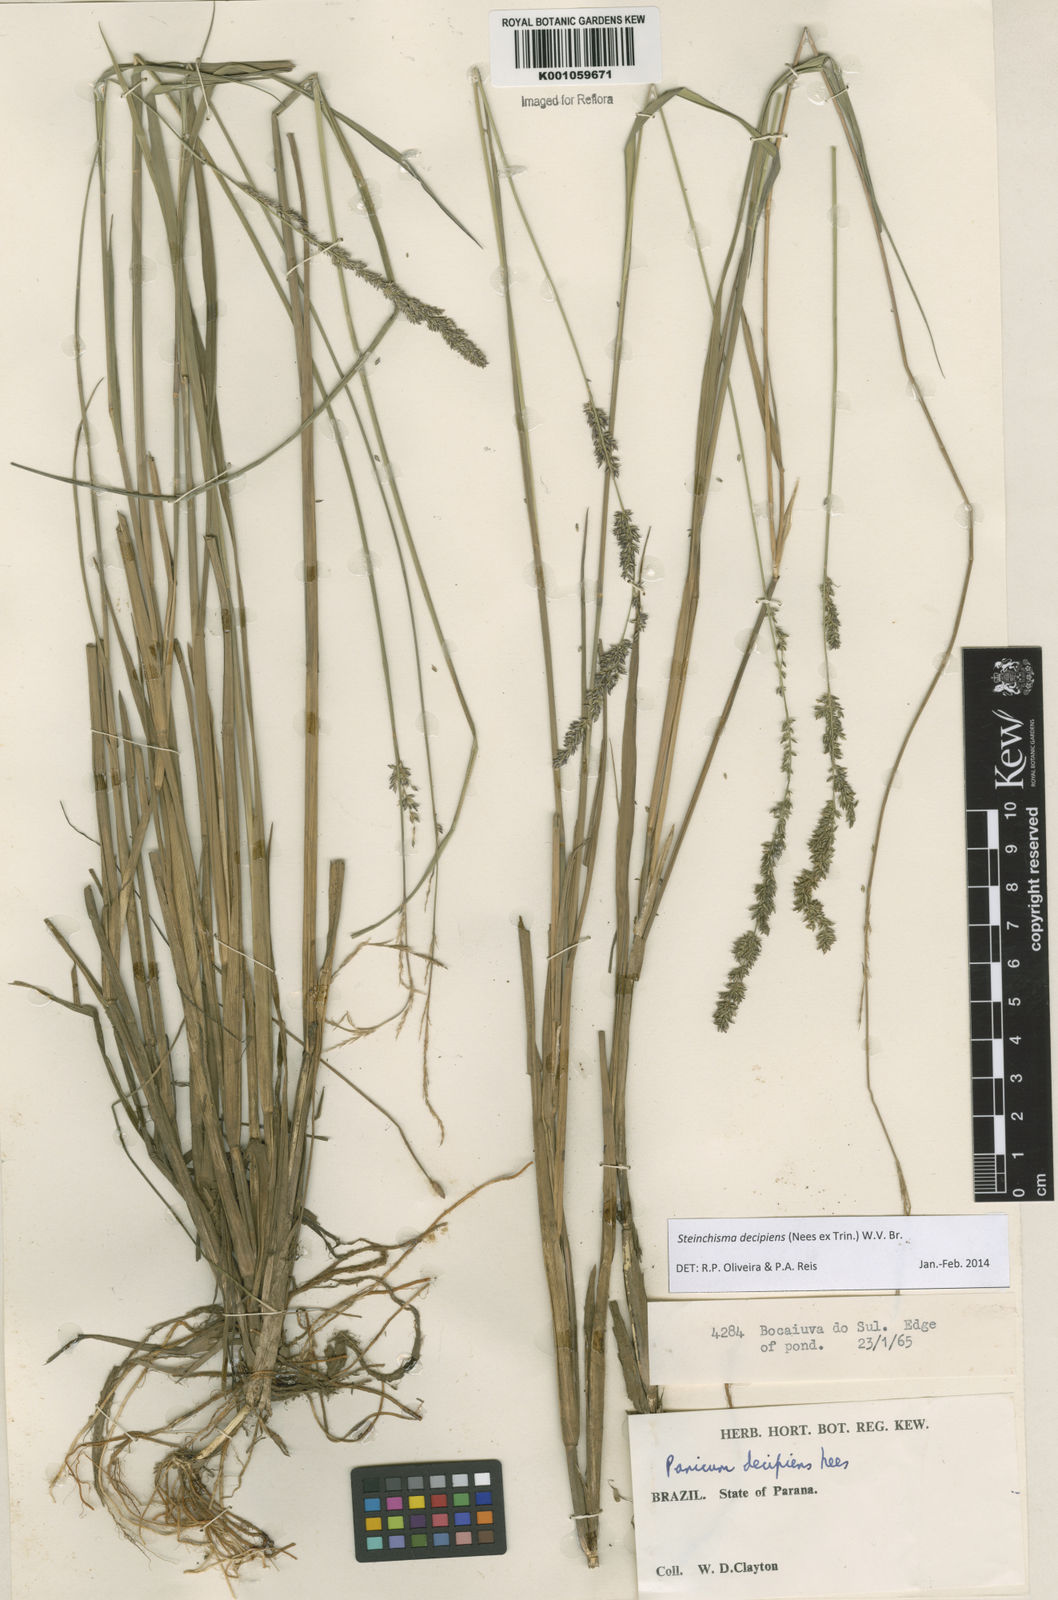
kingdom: Plantae
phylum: Tracheophyta
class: Liliopsida
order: Poales
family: Poaceae
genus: Steinchisma
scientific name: Steinchisma decipiens
